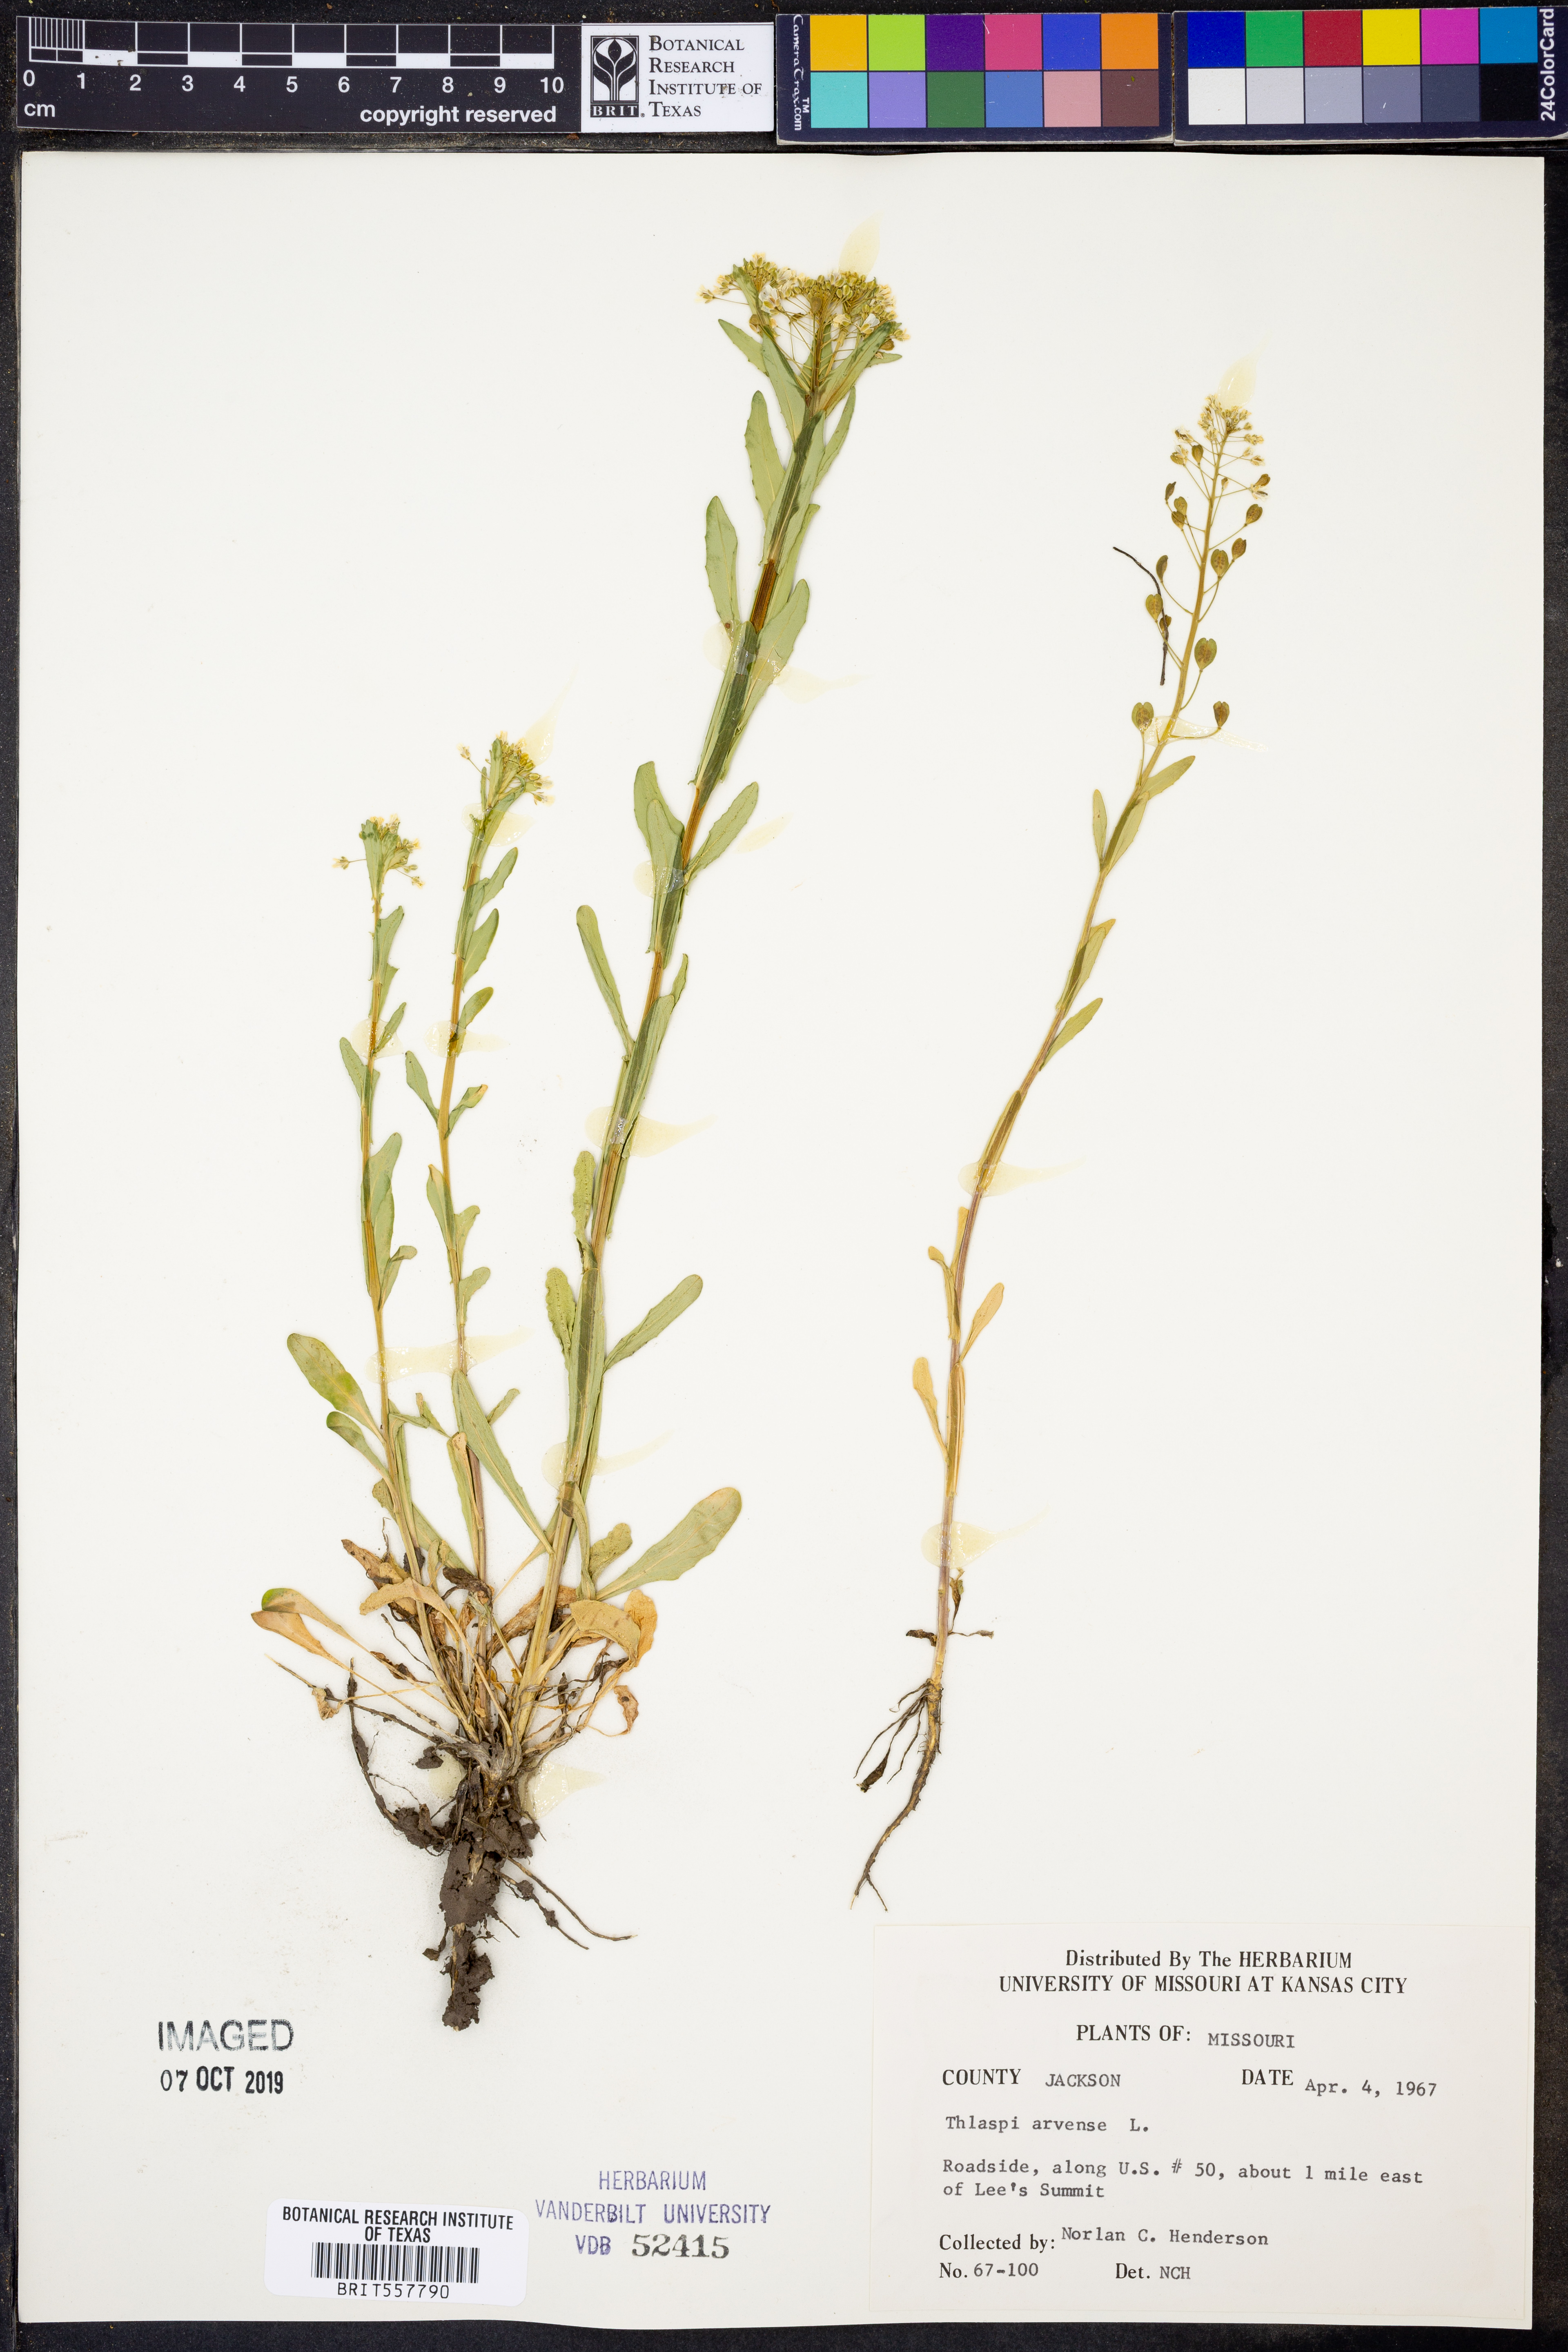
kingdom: Plantae
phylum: Tracheophyta
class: Magnoliopsida
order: Brassicales
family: Brassicaceae
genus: Thlaspi
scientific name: Thlaspi arvense
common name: Field pennycress
